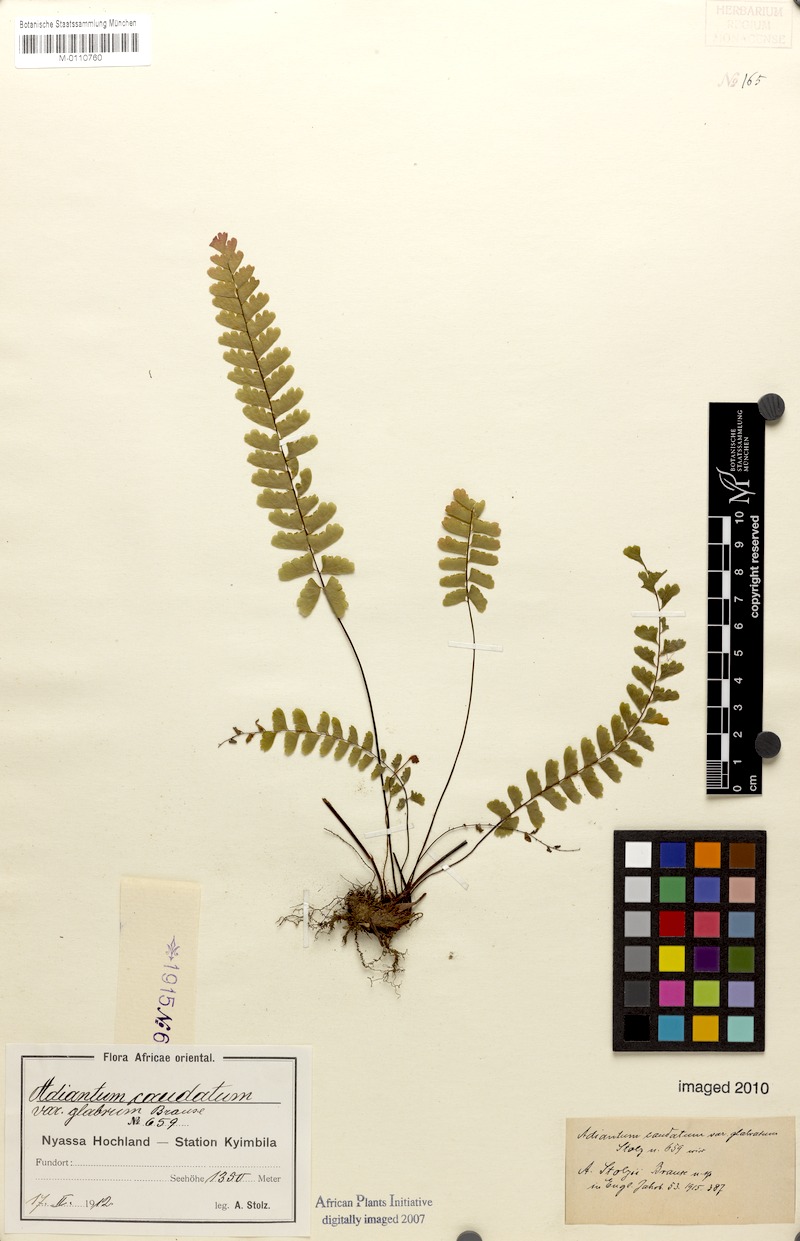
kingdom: Plantae
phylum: Tracheophyta
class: Polypodiopsida
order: Polypodiales
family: Pteridaceae
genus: Adiantum
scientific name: Adiantum stolzii
